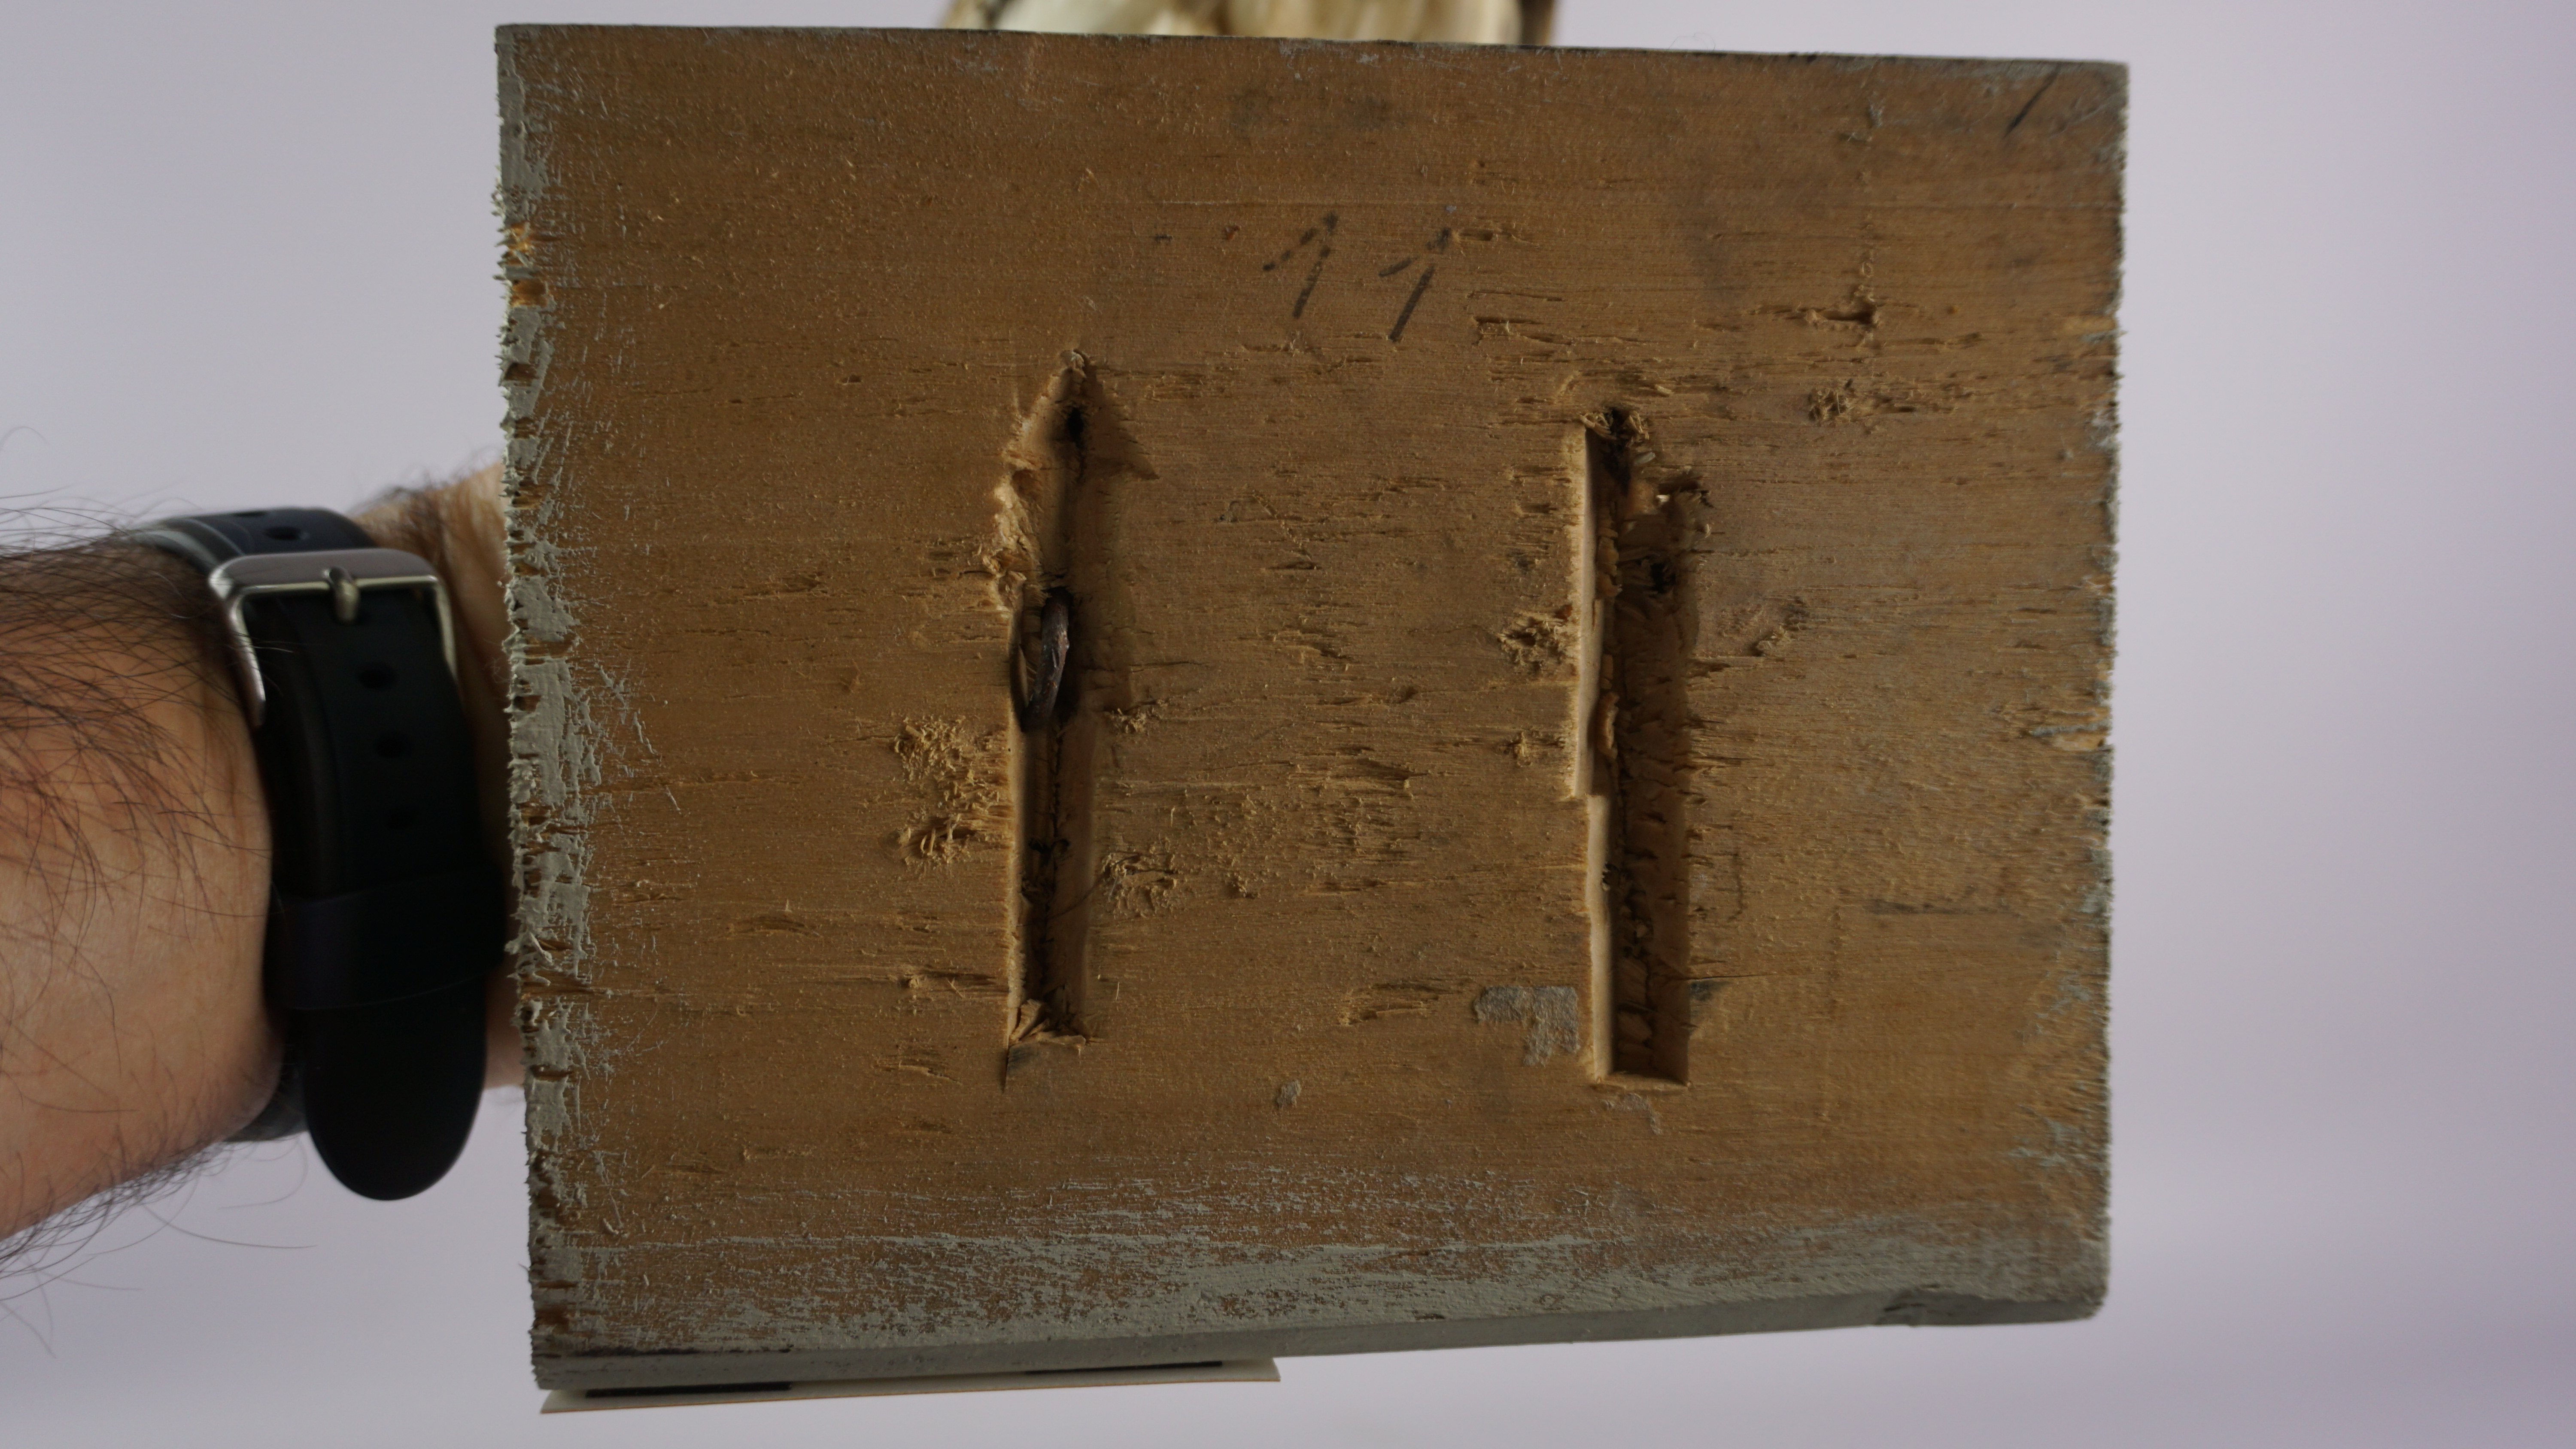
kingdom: Animalia
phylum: Chordata
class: Aves
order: Otidiformes
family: Otididae
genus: Tetrax
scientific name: Tetrax tetrax
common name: Little bustard
